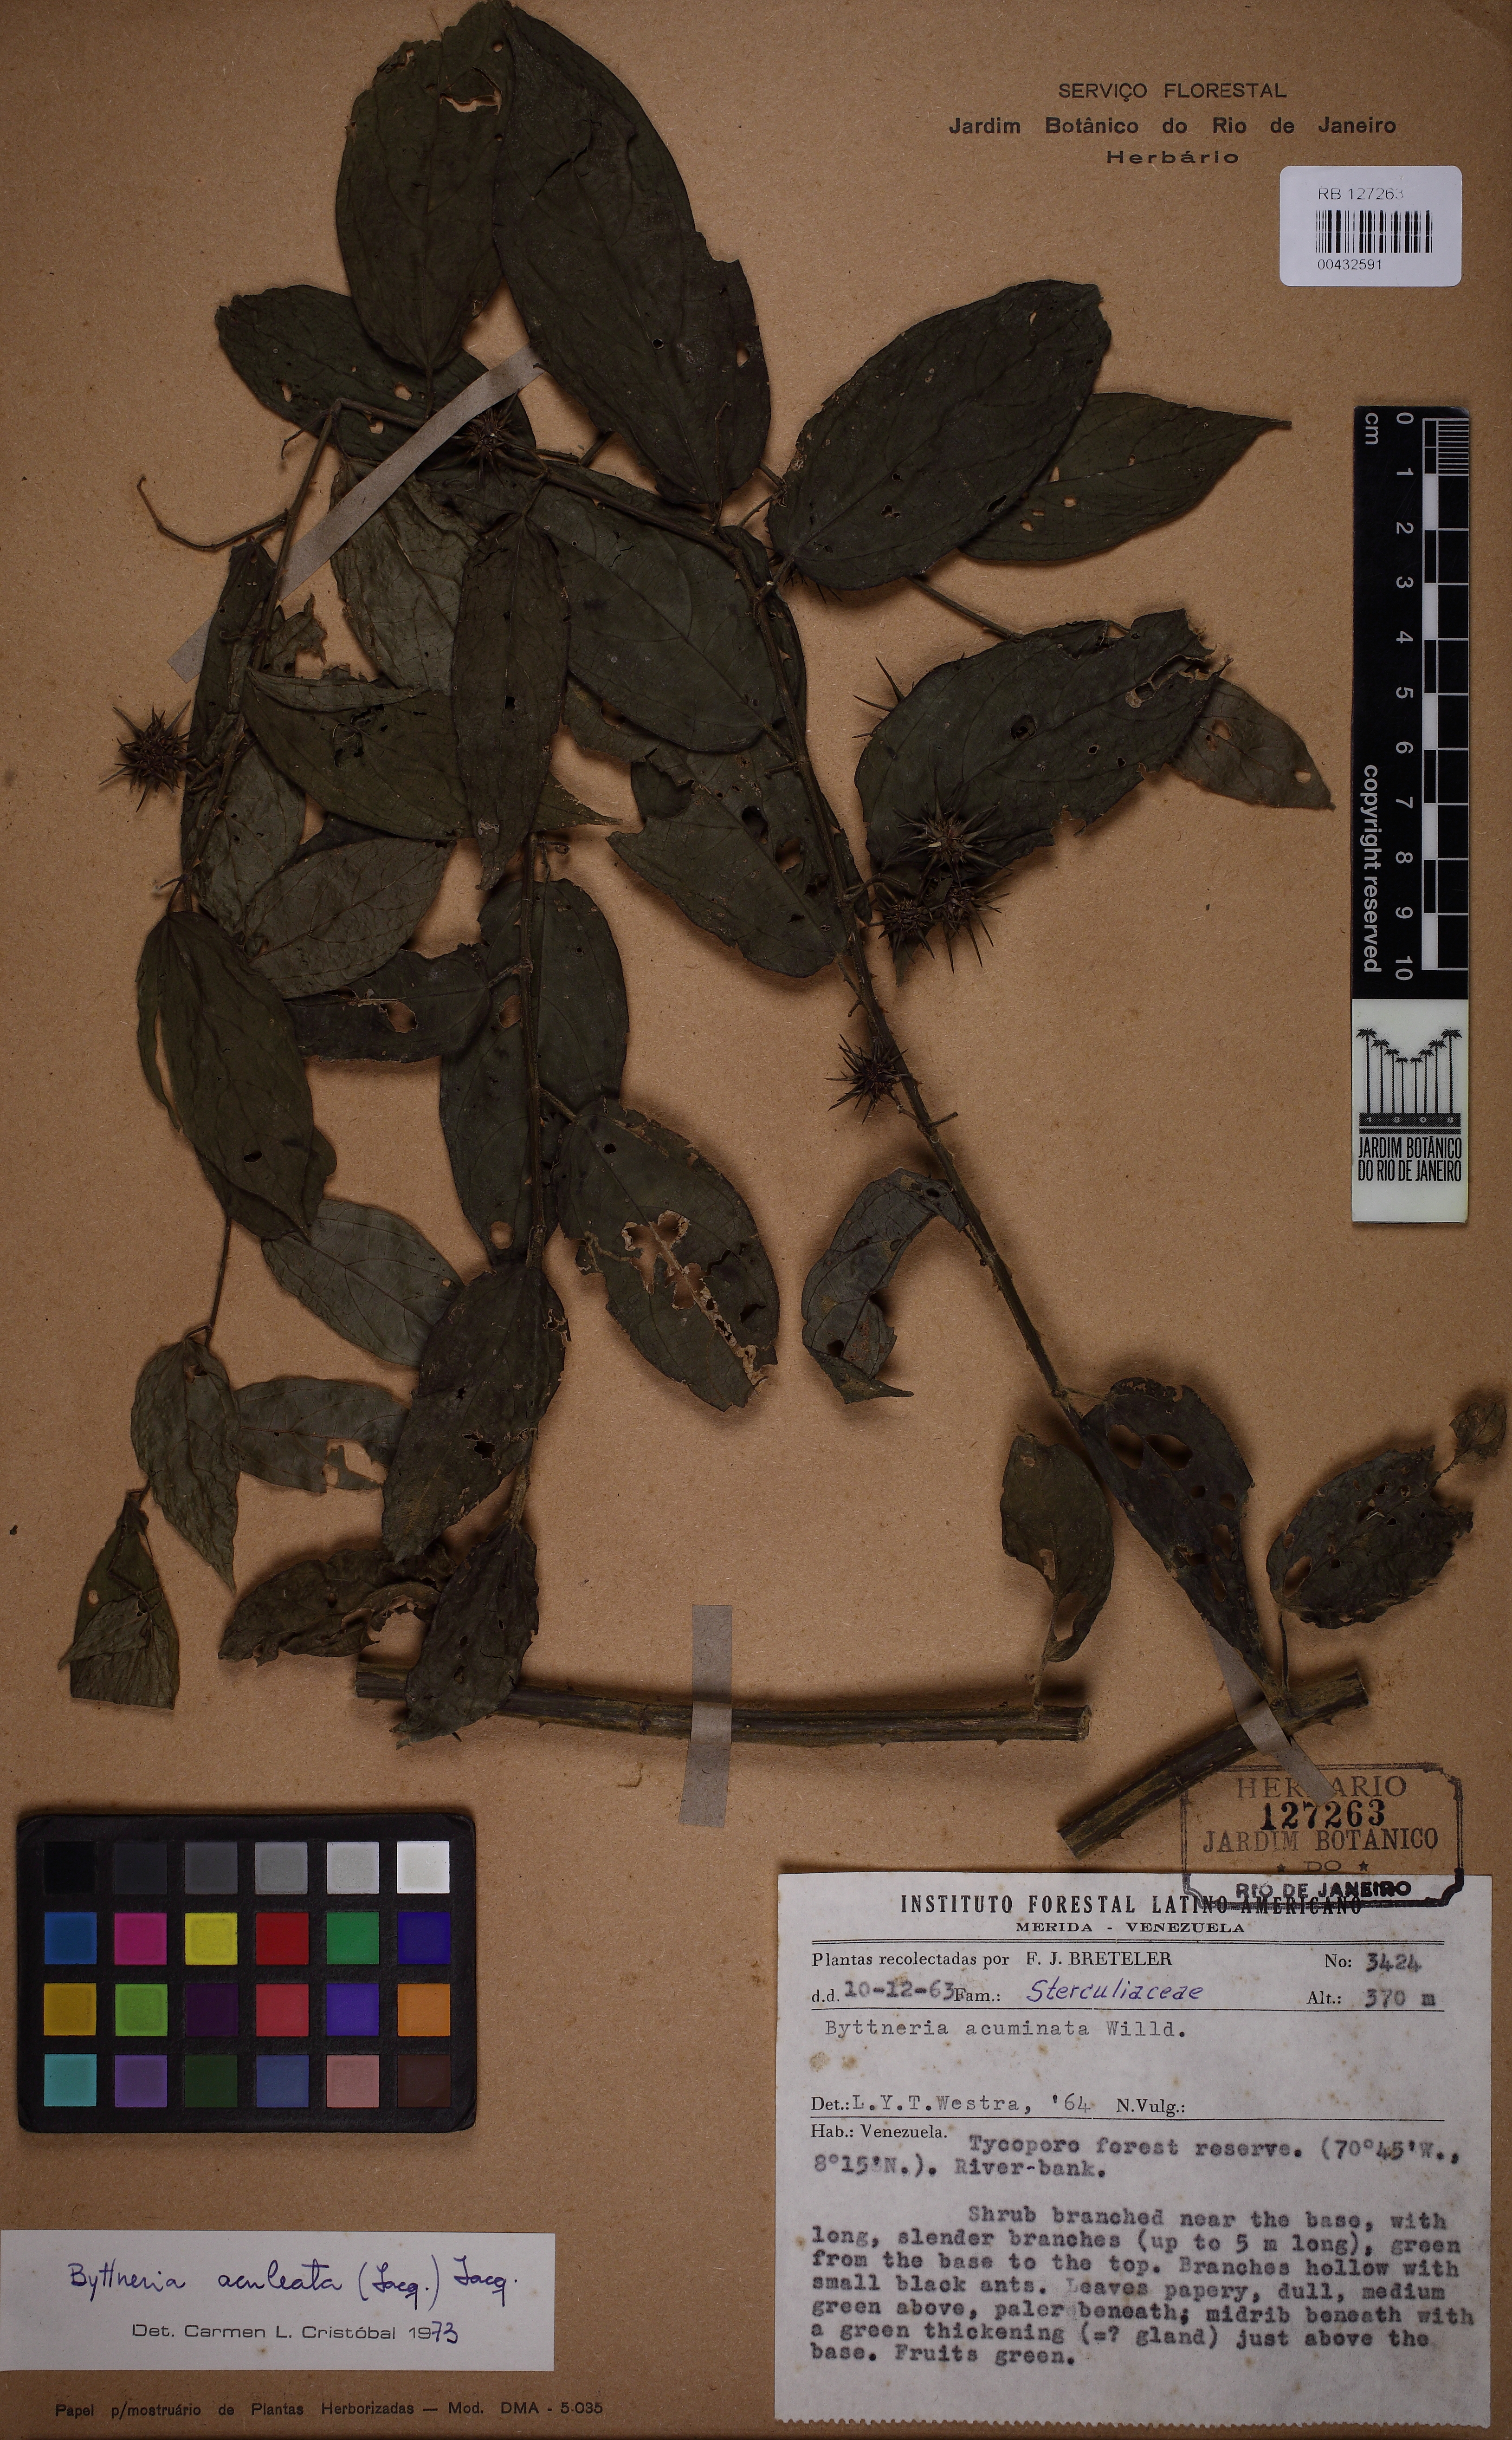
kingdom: Plantae
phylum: Tracheophyta
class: Magnoliopsida
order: Malvales
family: Malvaceae
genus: Byttneria
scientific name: Byttneria aculeata
